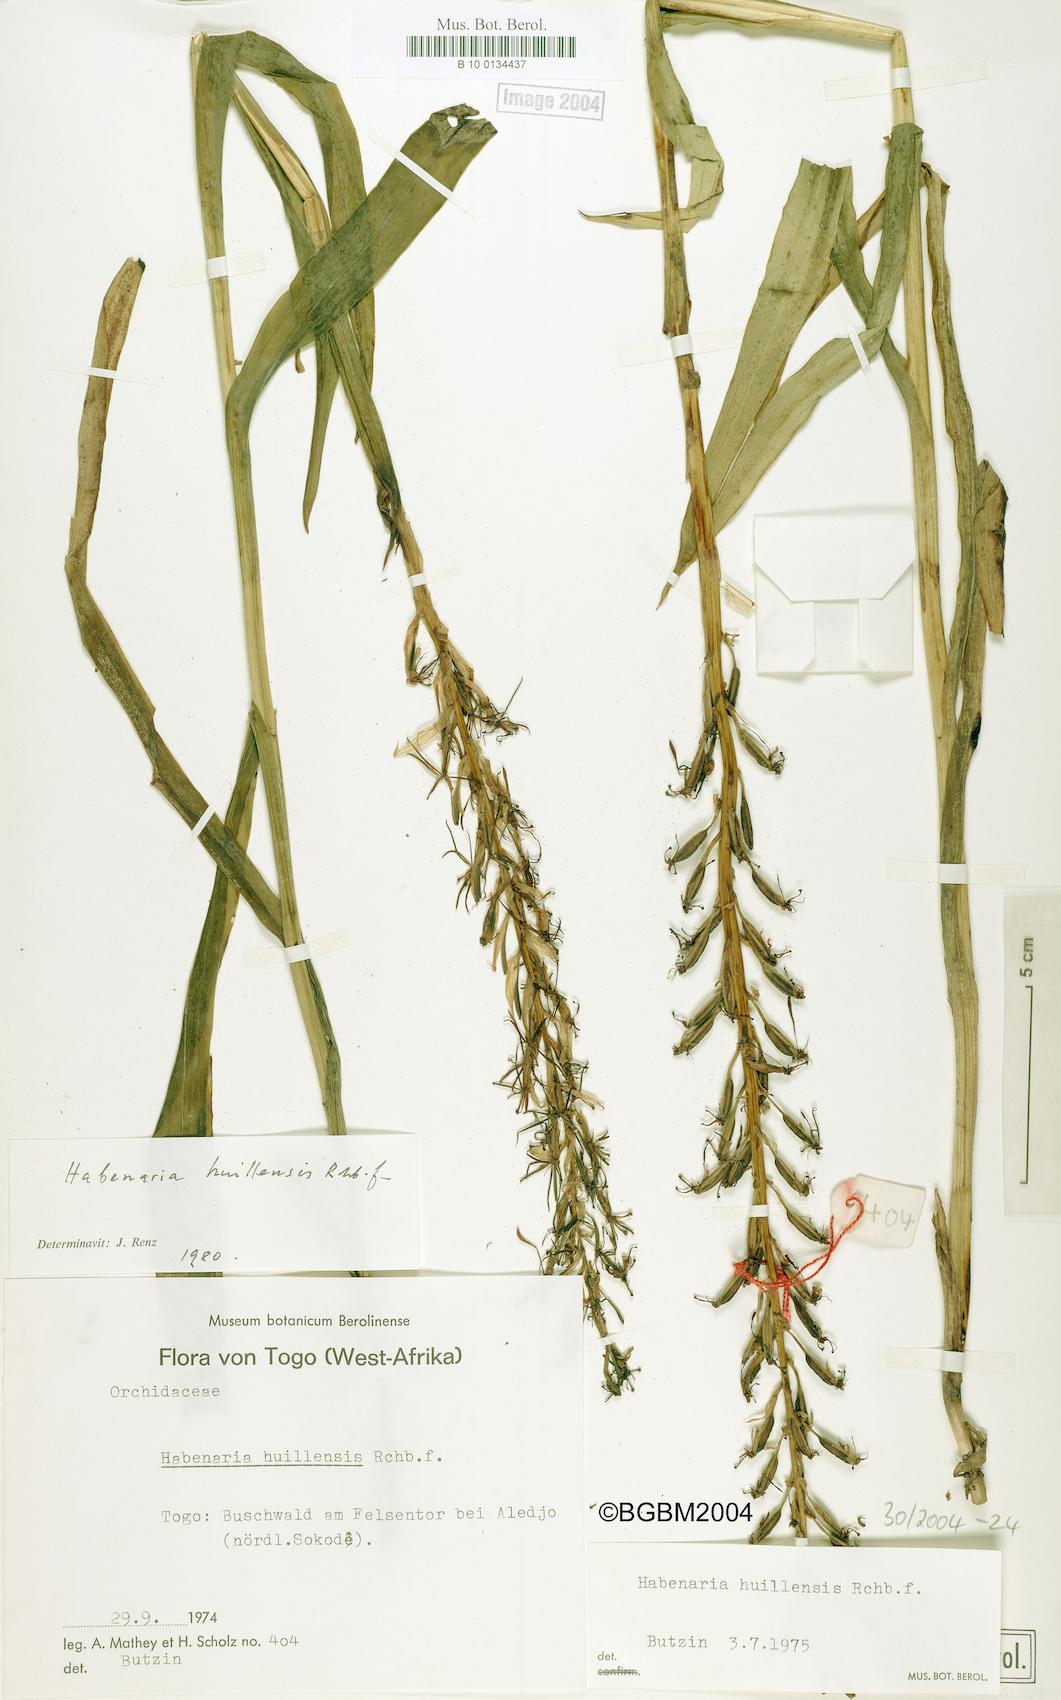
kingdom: Plantae
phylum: Tracheophyta
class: Liliopsida
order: Asparagales
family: Orchidaceae
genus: Habenaria
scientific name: Habenaria huillensis
